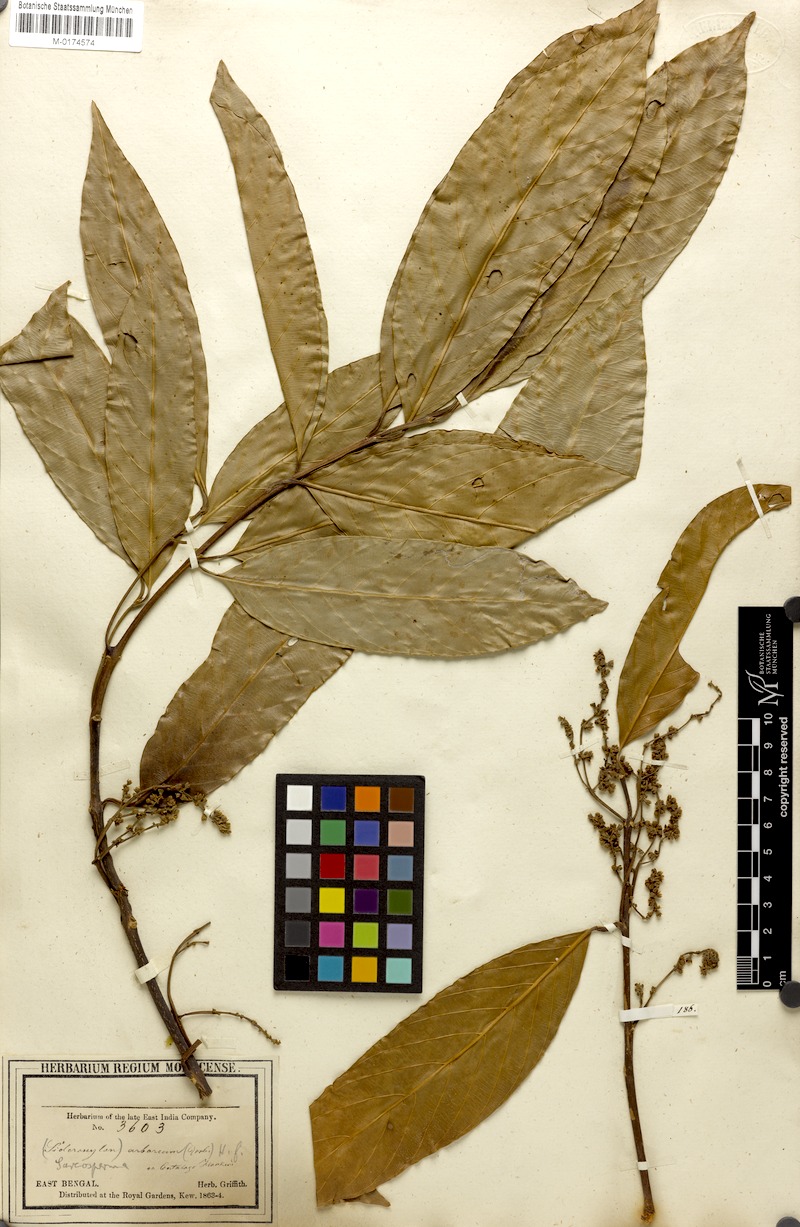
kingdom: Plantae
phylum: Tracheophyta
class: Magnoliopsida
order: Ericales
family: Sapotaceae
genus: Sarcosperma
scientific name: Sarcosperma arboreum
